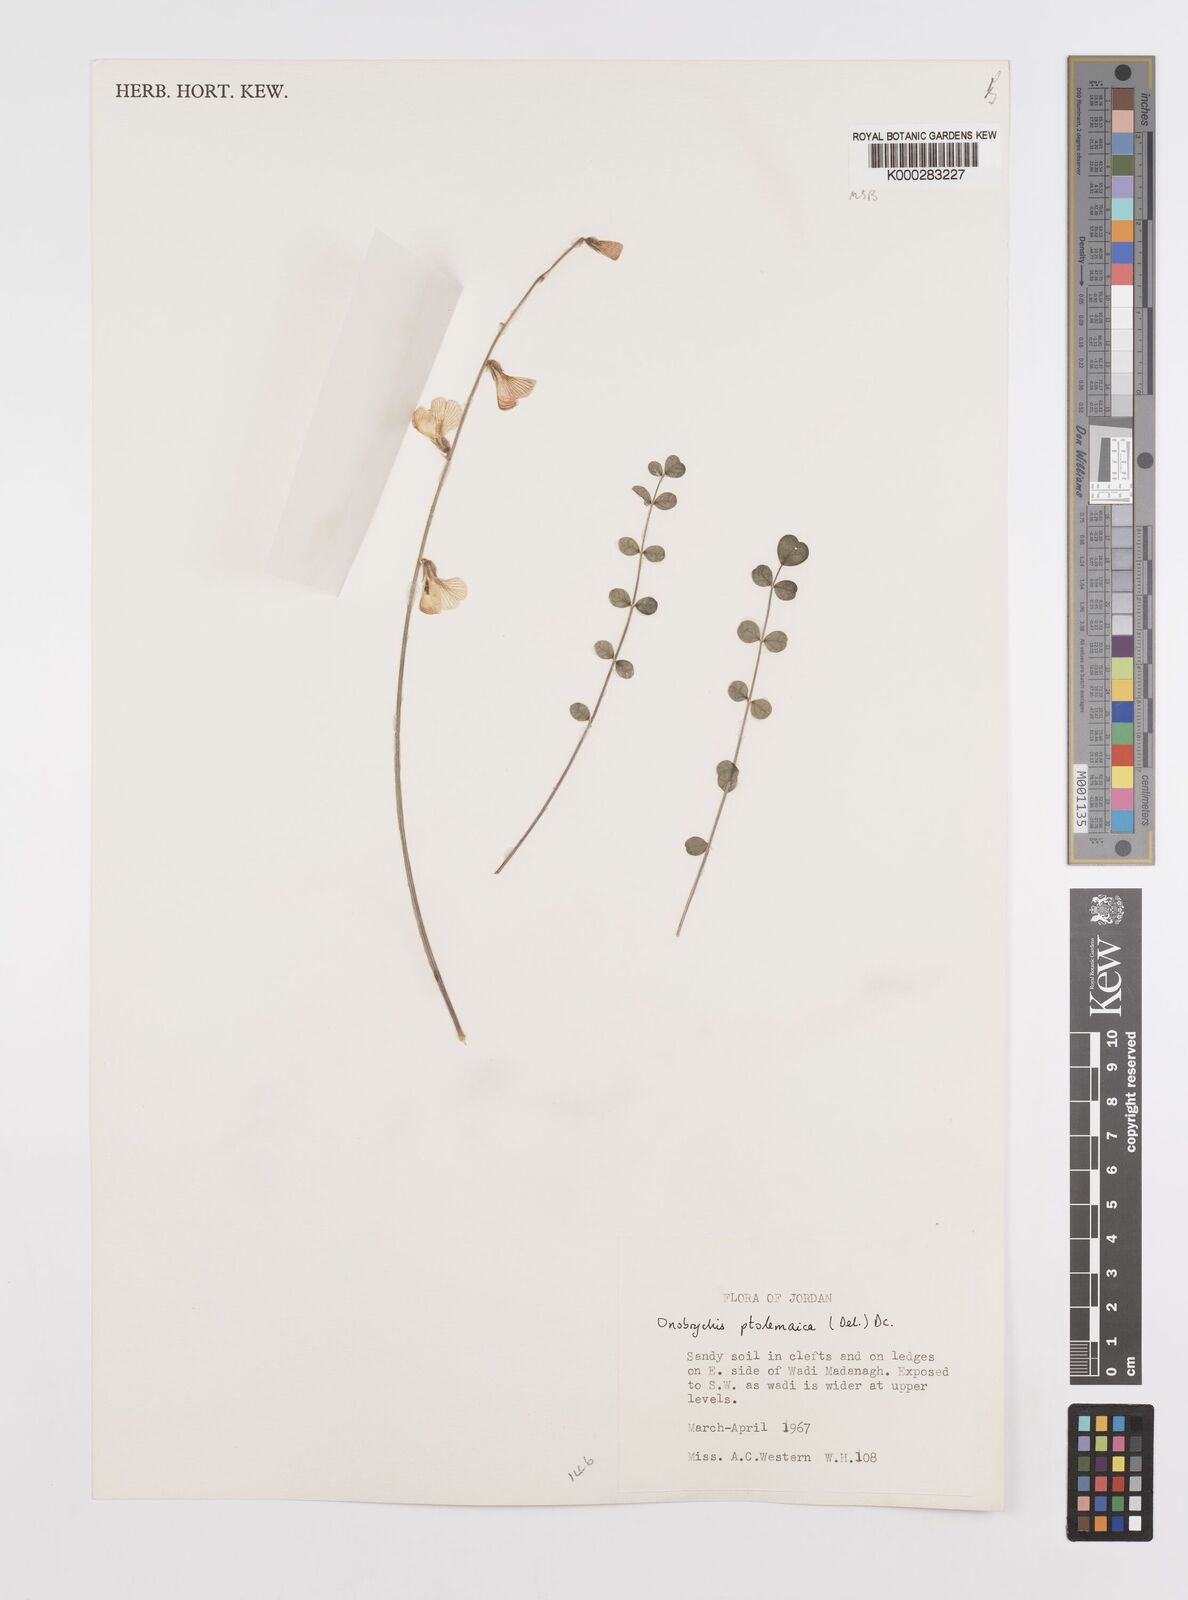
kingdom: Plantae
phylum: Tracheophyta
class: Magnoliopsida
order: Fabales
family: Fabaceae
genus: Onobrychis
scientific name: Onobrychis ptolemaica
